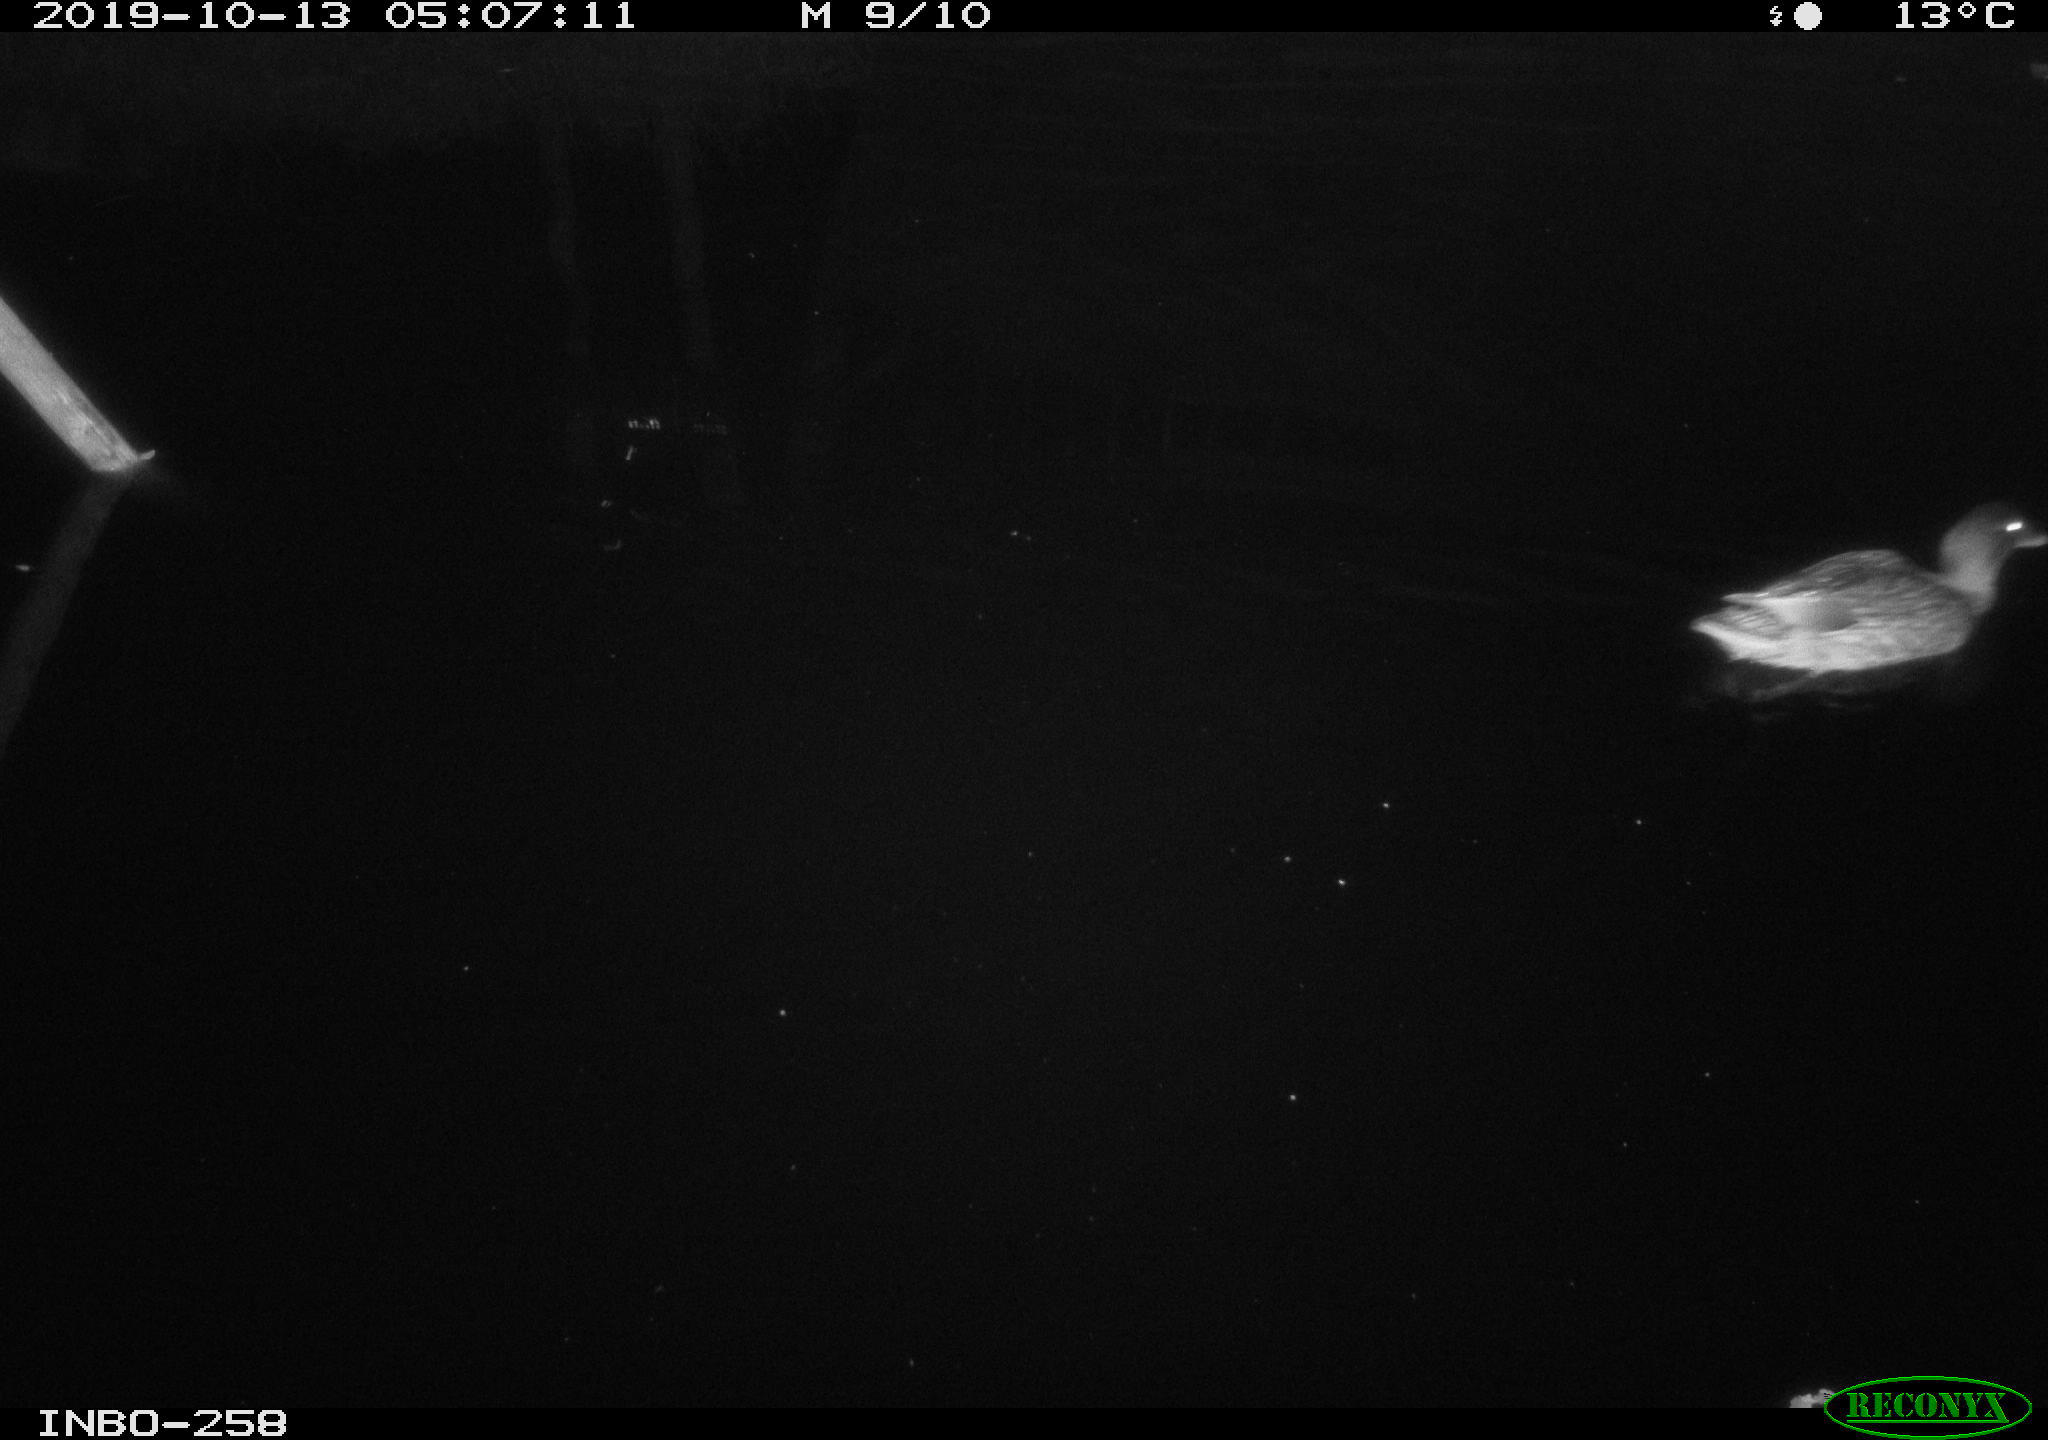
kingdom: Animalia
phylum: Chordata
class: Aves
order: Anseriformes
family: Anatidae
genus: Anas
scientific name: Anas platyrhynchos
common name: Mallard
